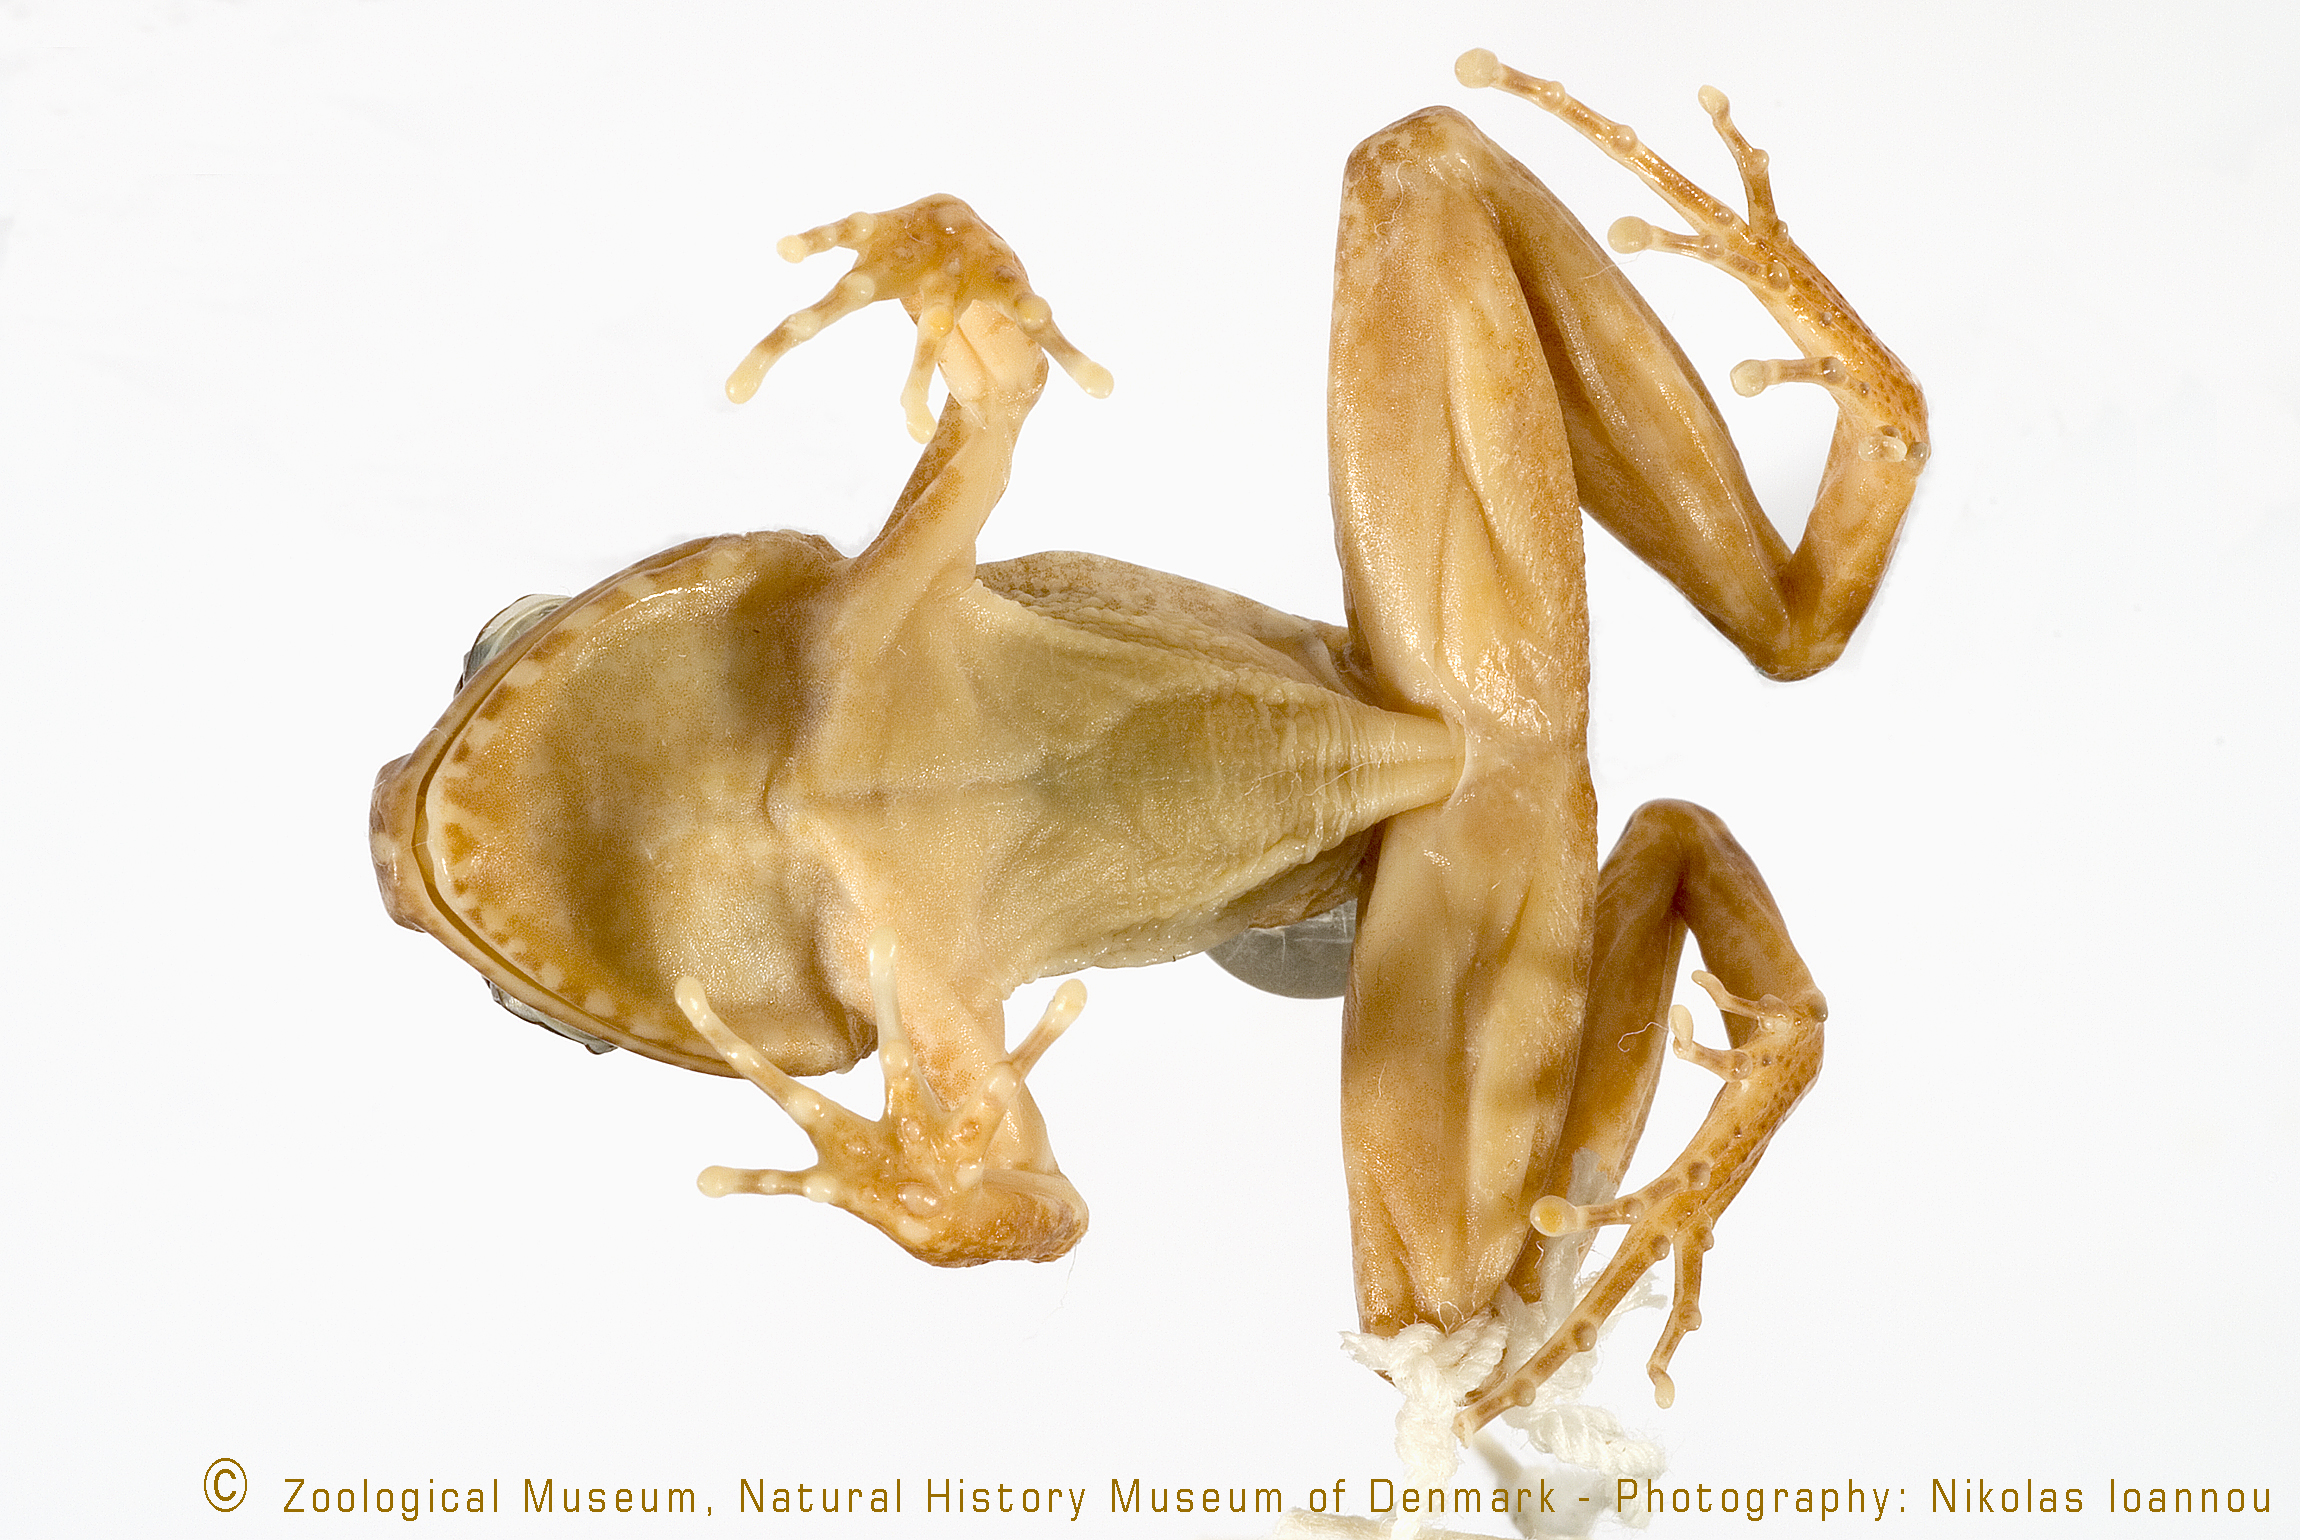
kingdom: Animalia
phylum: Chordata
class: Amphibia
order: Anura
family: Arthroleptidae
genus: Arthroleptis
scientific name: Arthroleptis adolfifriederici
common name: Rugegewald screeching frog
